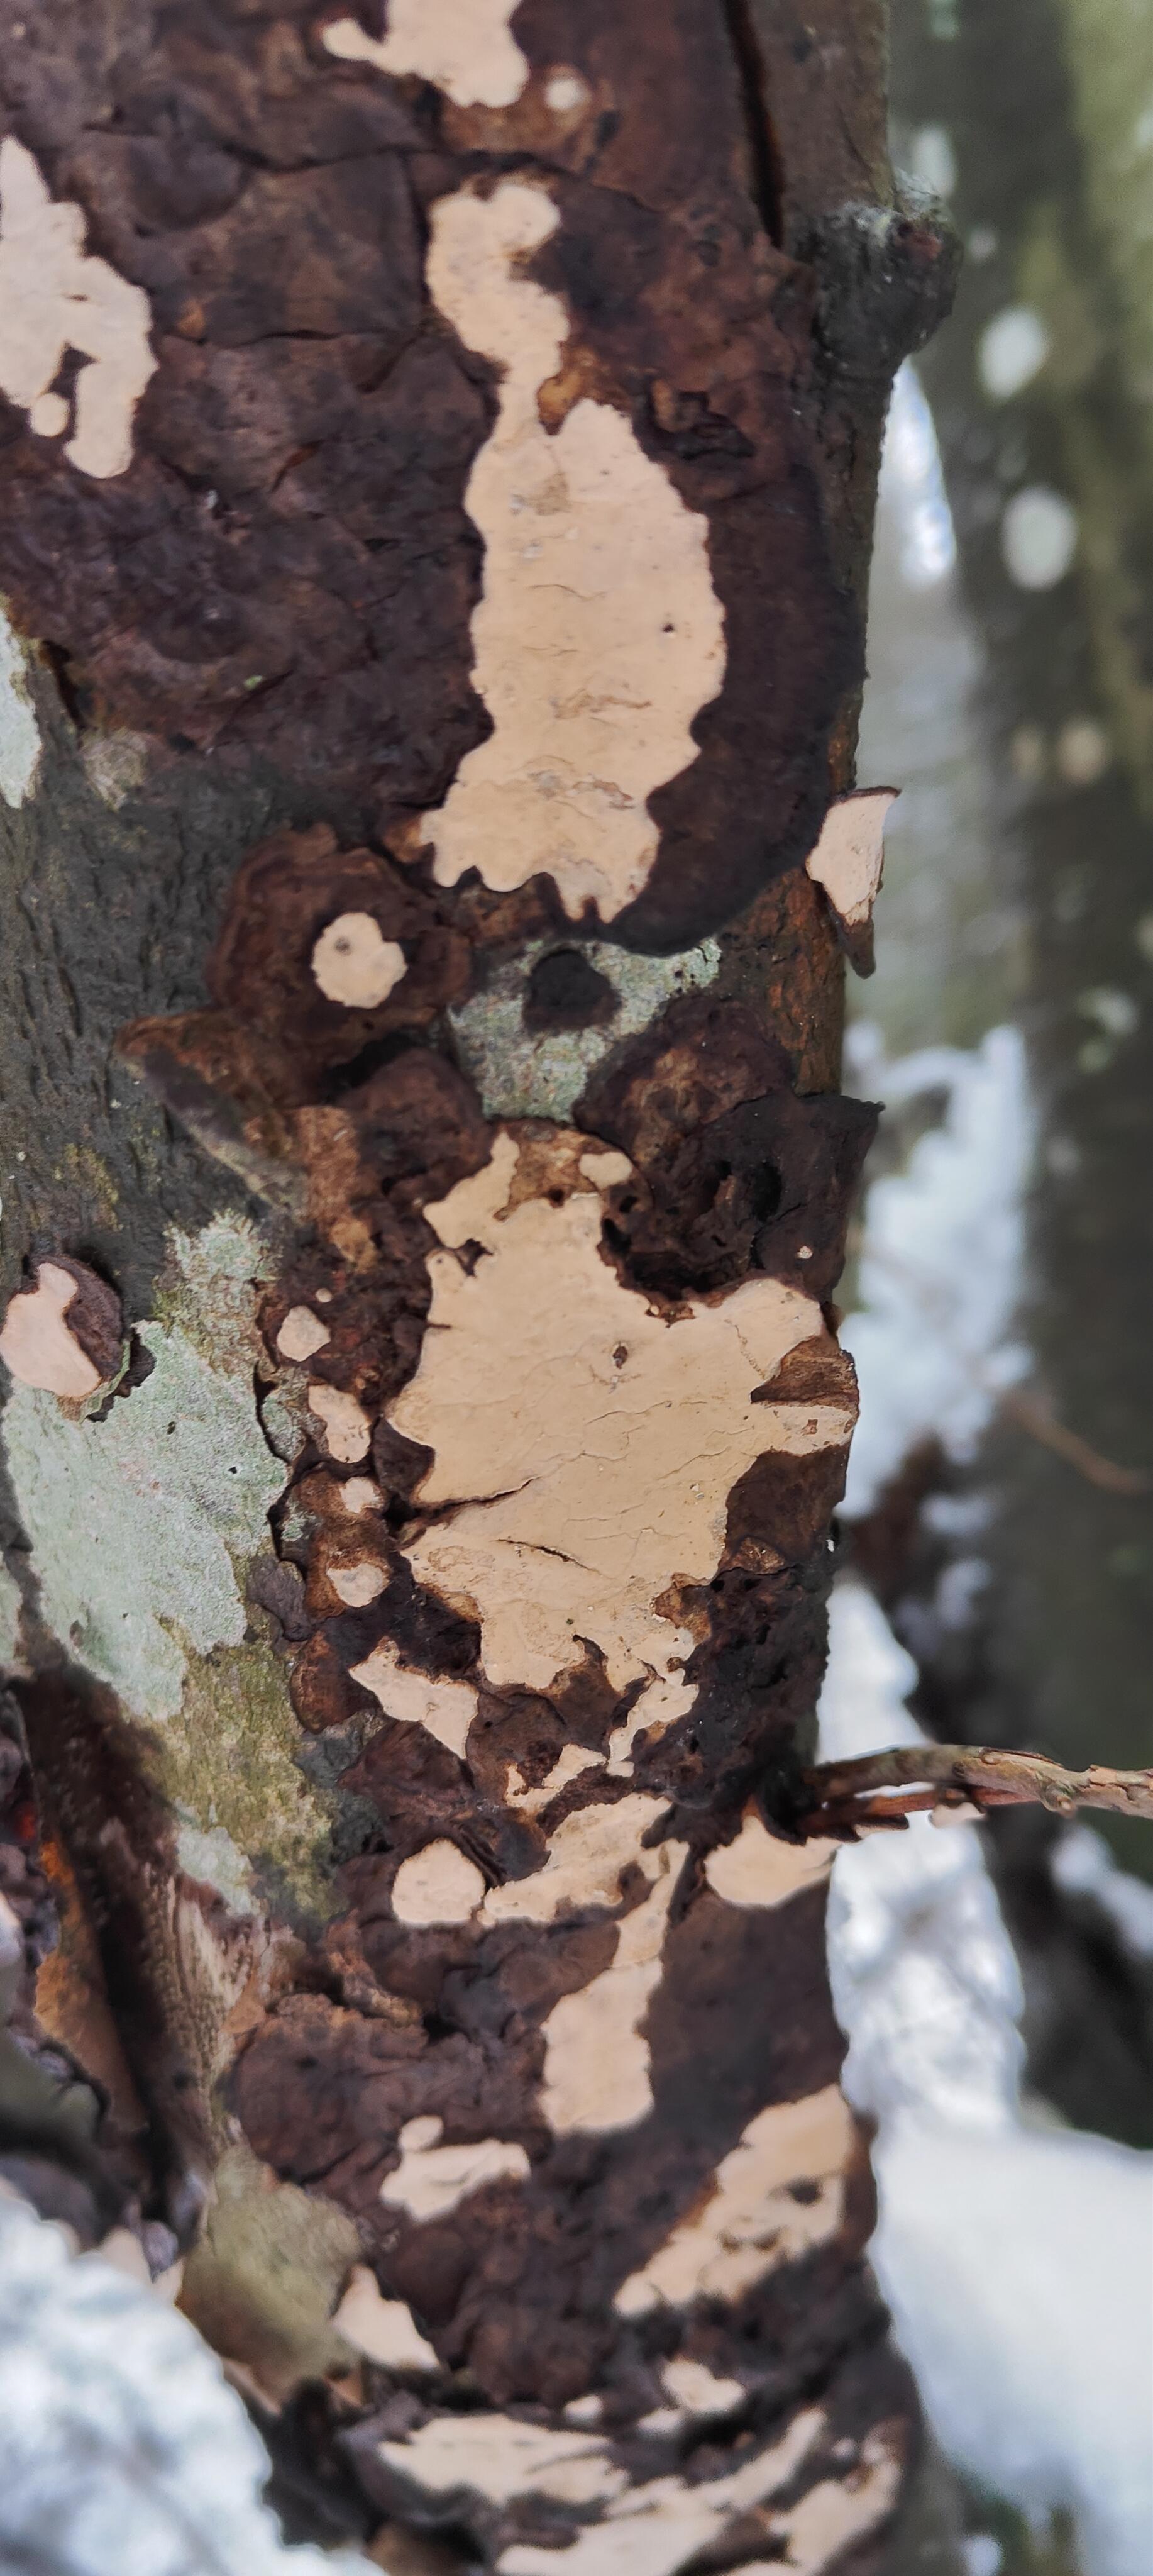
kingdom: Fungi
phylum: Basidiomycota
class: Agaricomycetes
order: Russulales
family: Stereaceae
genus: Stereum
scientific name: Stereum rugosum
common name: rynket lædersvamp
